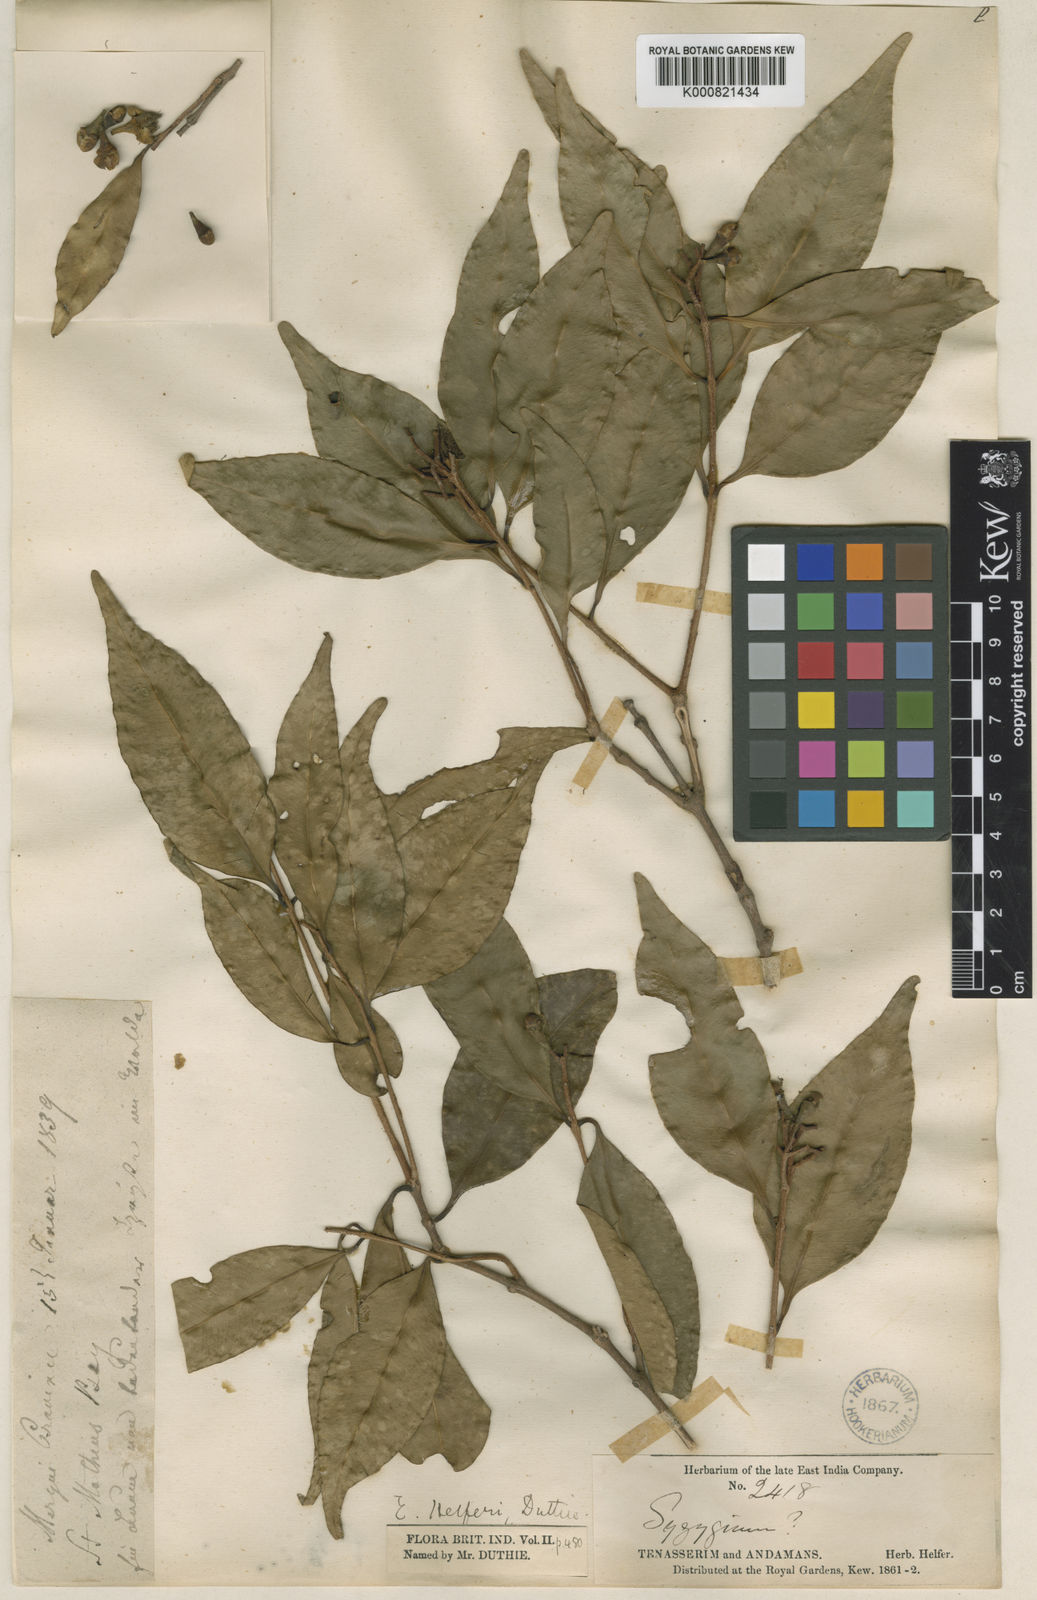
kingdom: Plantae
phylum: Tracheophyta
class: Magnoliopsida
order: Myrtales
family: Myrtaceae
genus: Syzygium
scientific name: Syzygium ramosissimum
